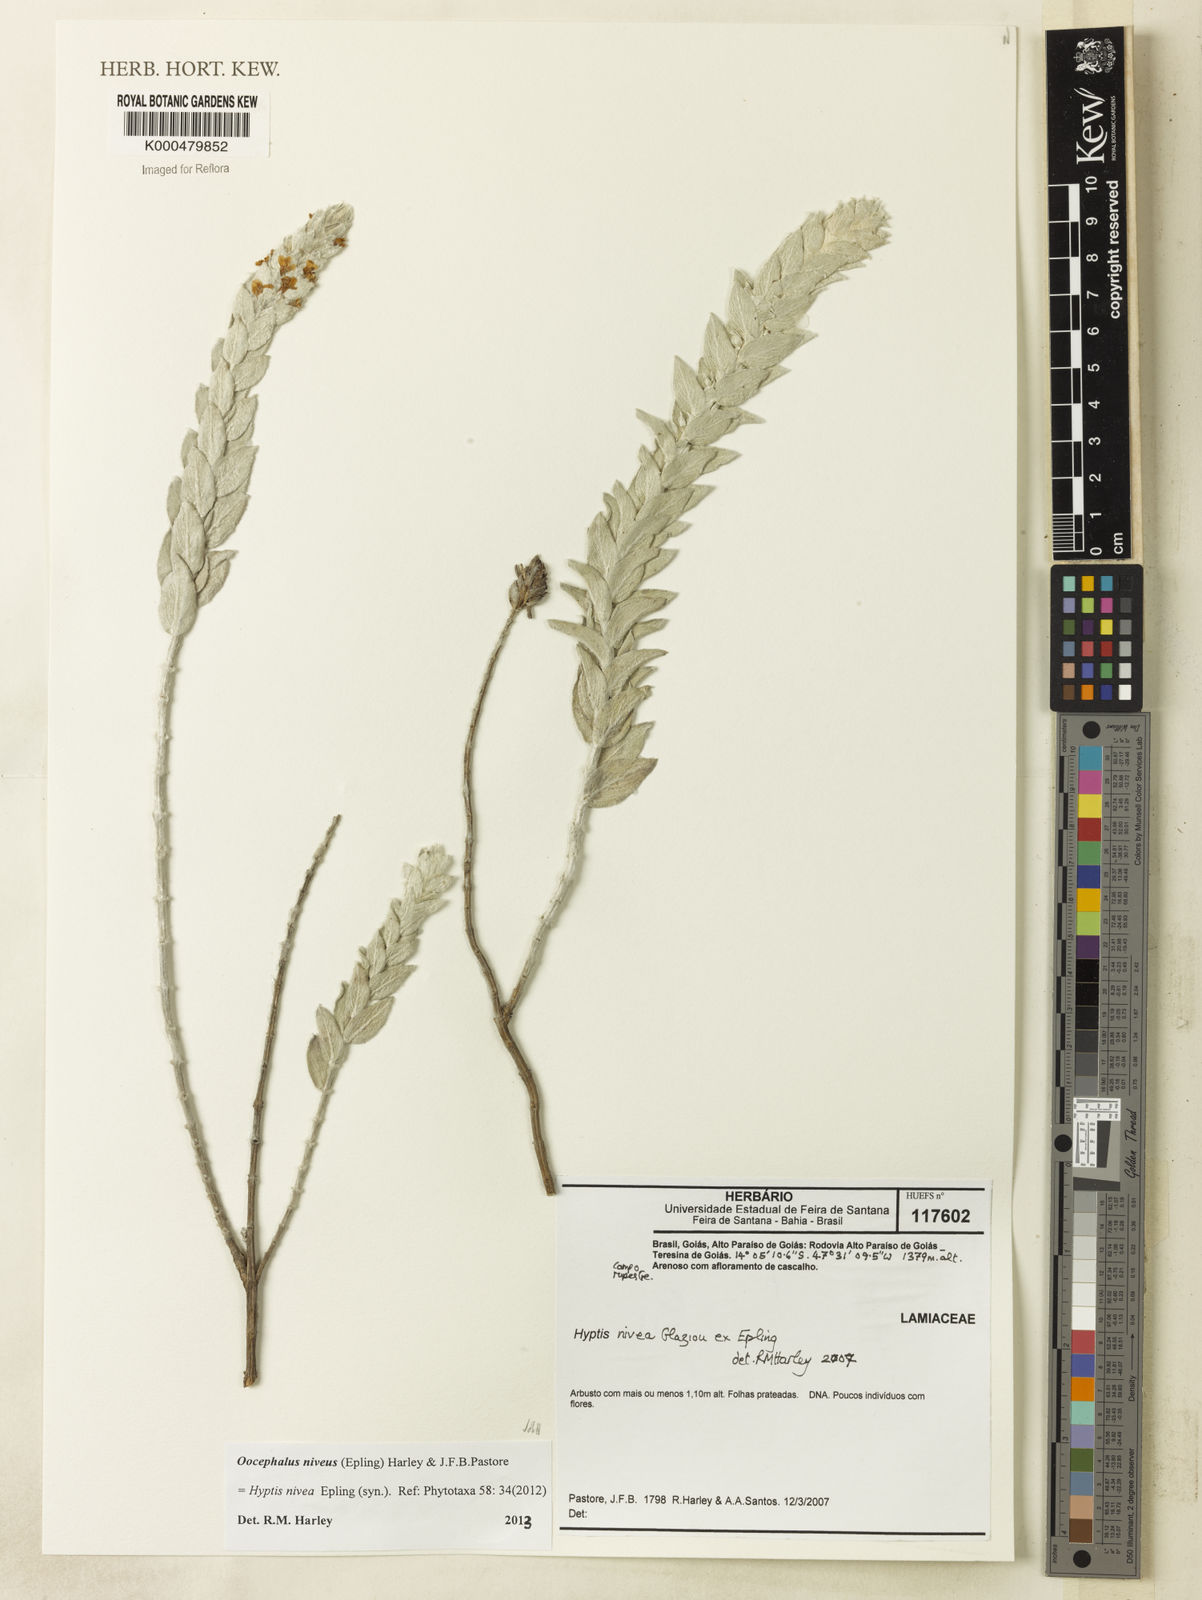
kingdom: Plantae
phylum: Tracheophyta
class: Magnoliopsida
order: Lamiales
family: Lamiaceae
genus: Oocephalus
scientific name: Oocephalus niveus
